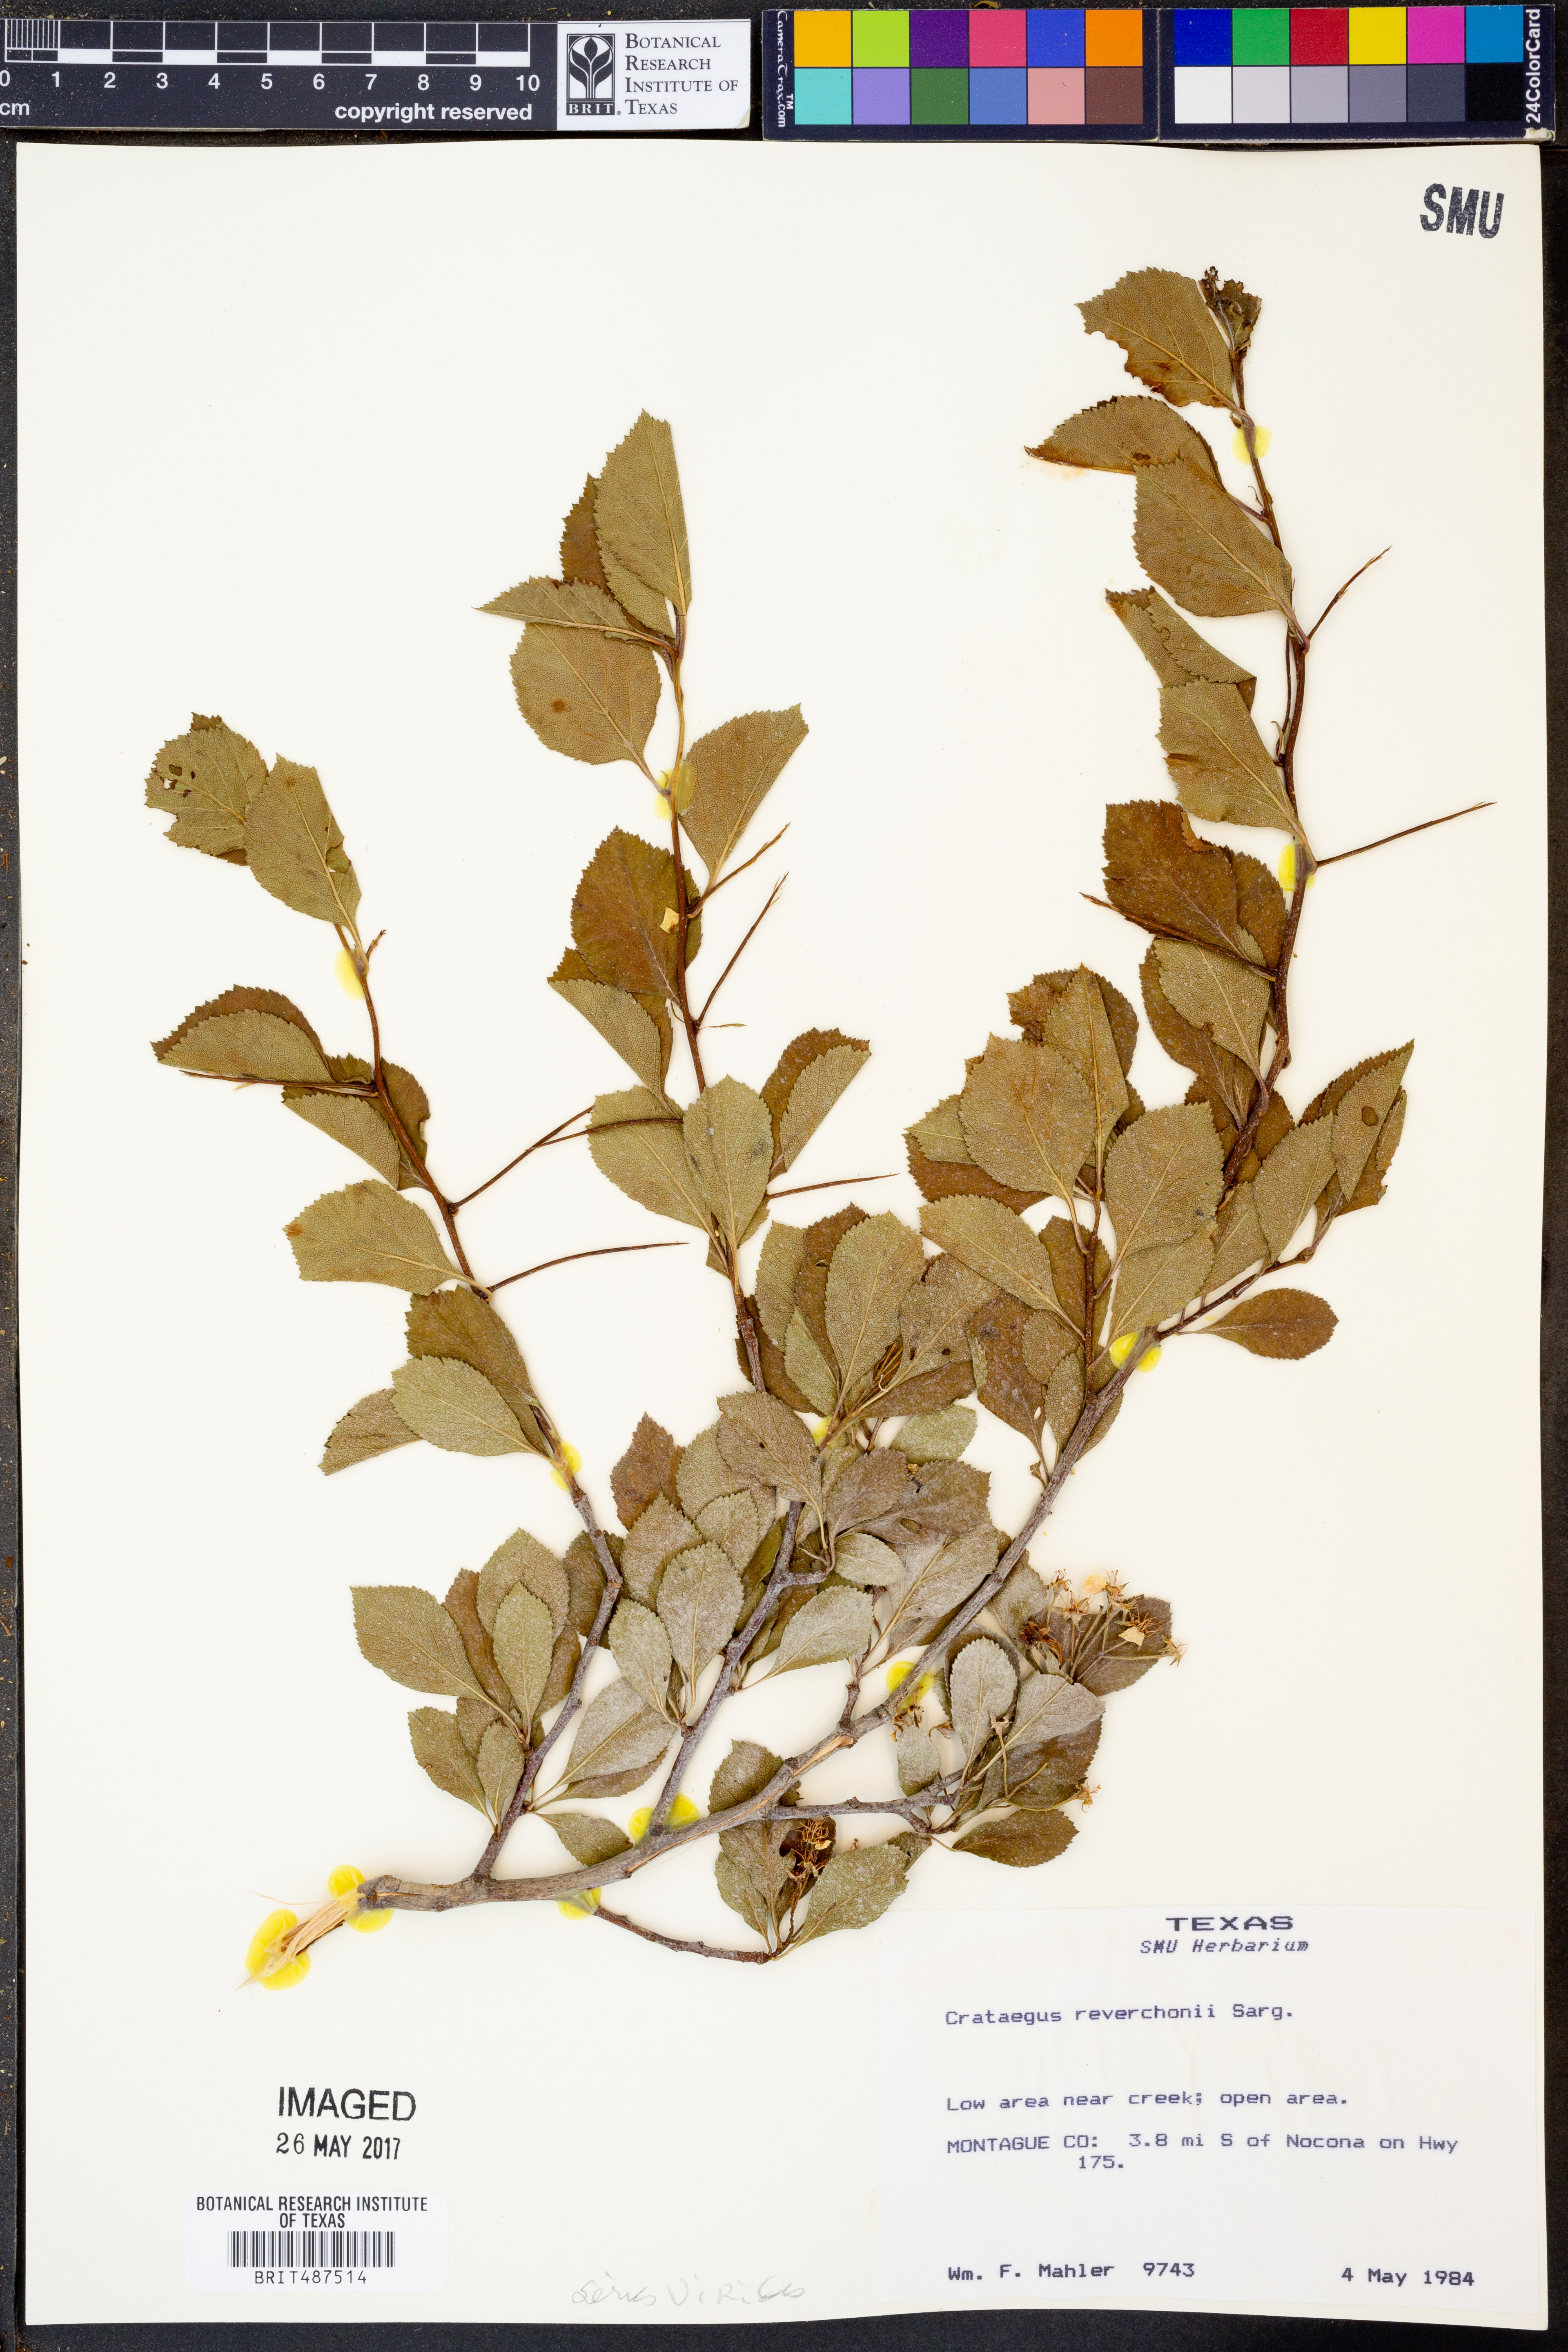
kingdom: Plantae
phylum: Tracheophyta
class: Magnoliopsida
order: Rosales
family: Rosaceae
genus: Crataegus
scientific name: Crataegus reverchonii
